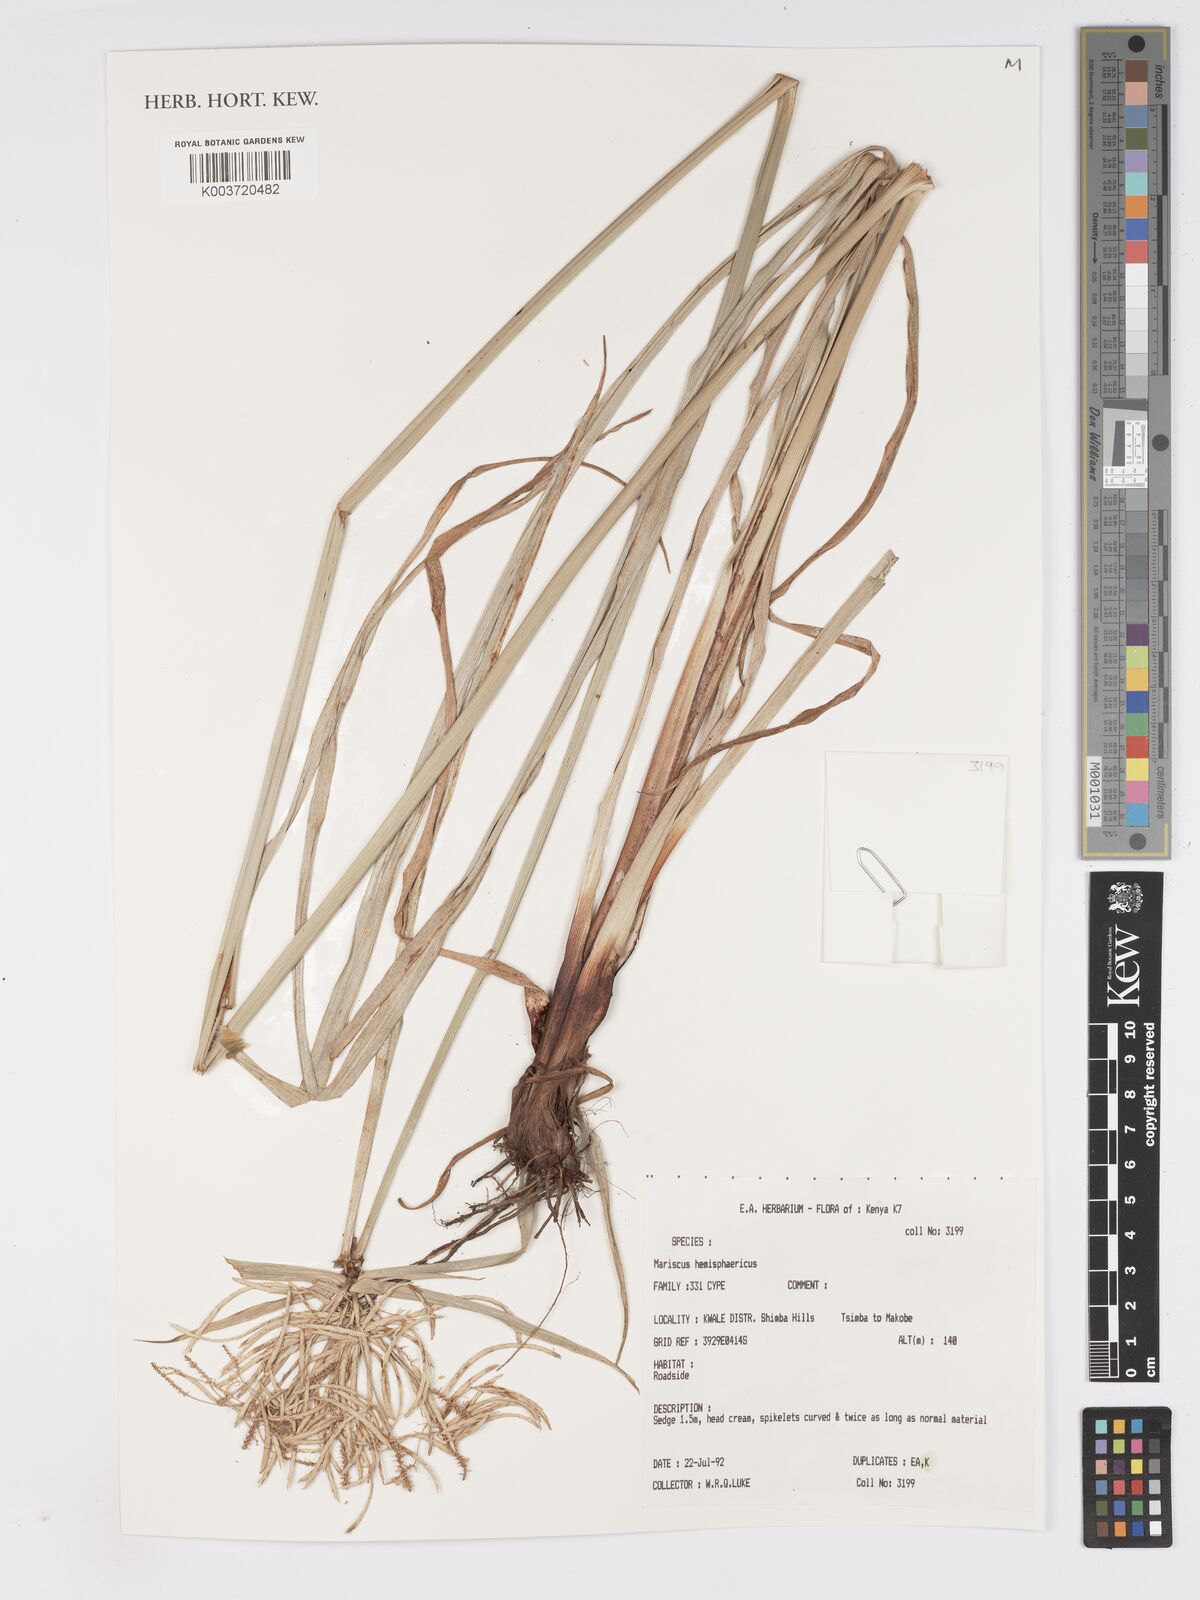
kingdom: Plantae
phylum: Tracheophyta
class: Liliopsida
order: Poales
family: Cyperaceae
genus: Cyperus
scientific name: Cyperus hemisphaericus
